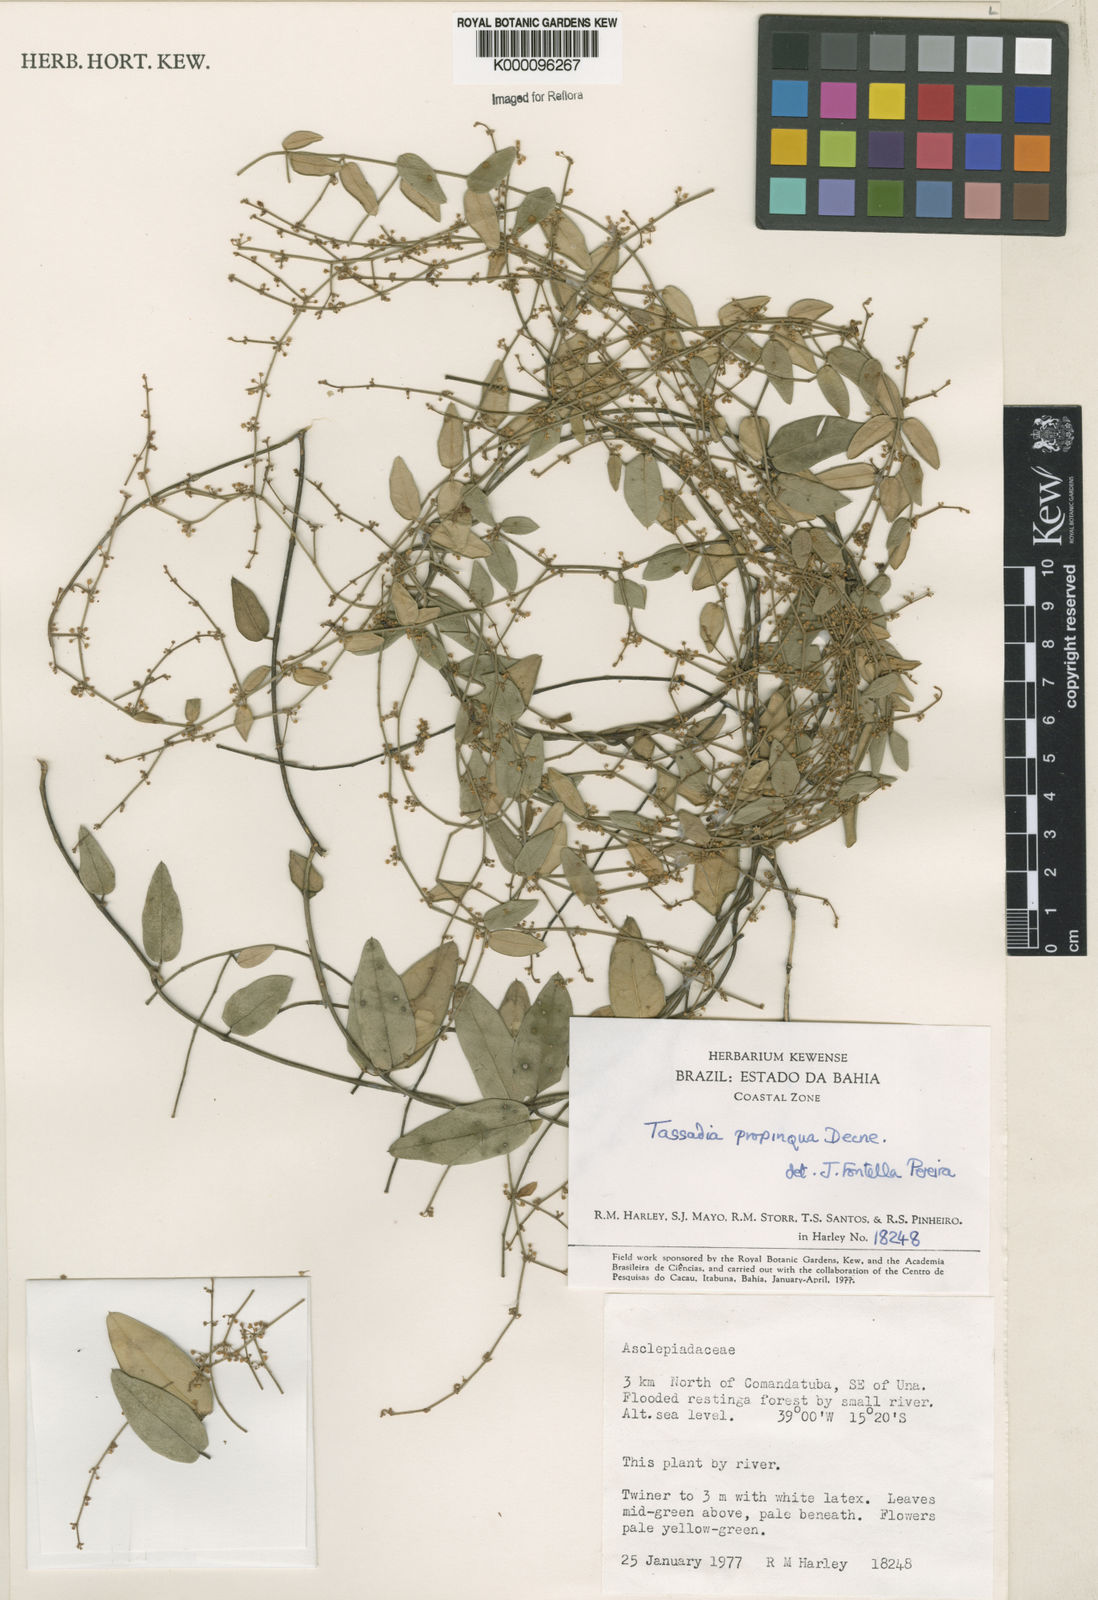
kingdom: Plantae
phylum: Tracheophyta
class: Magnoliopsida
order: Gentianales
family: Apocynaceae
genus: Tassadia
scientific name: Tassadia propinqua
